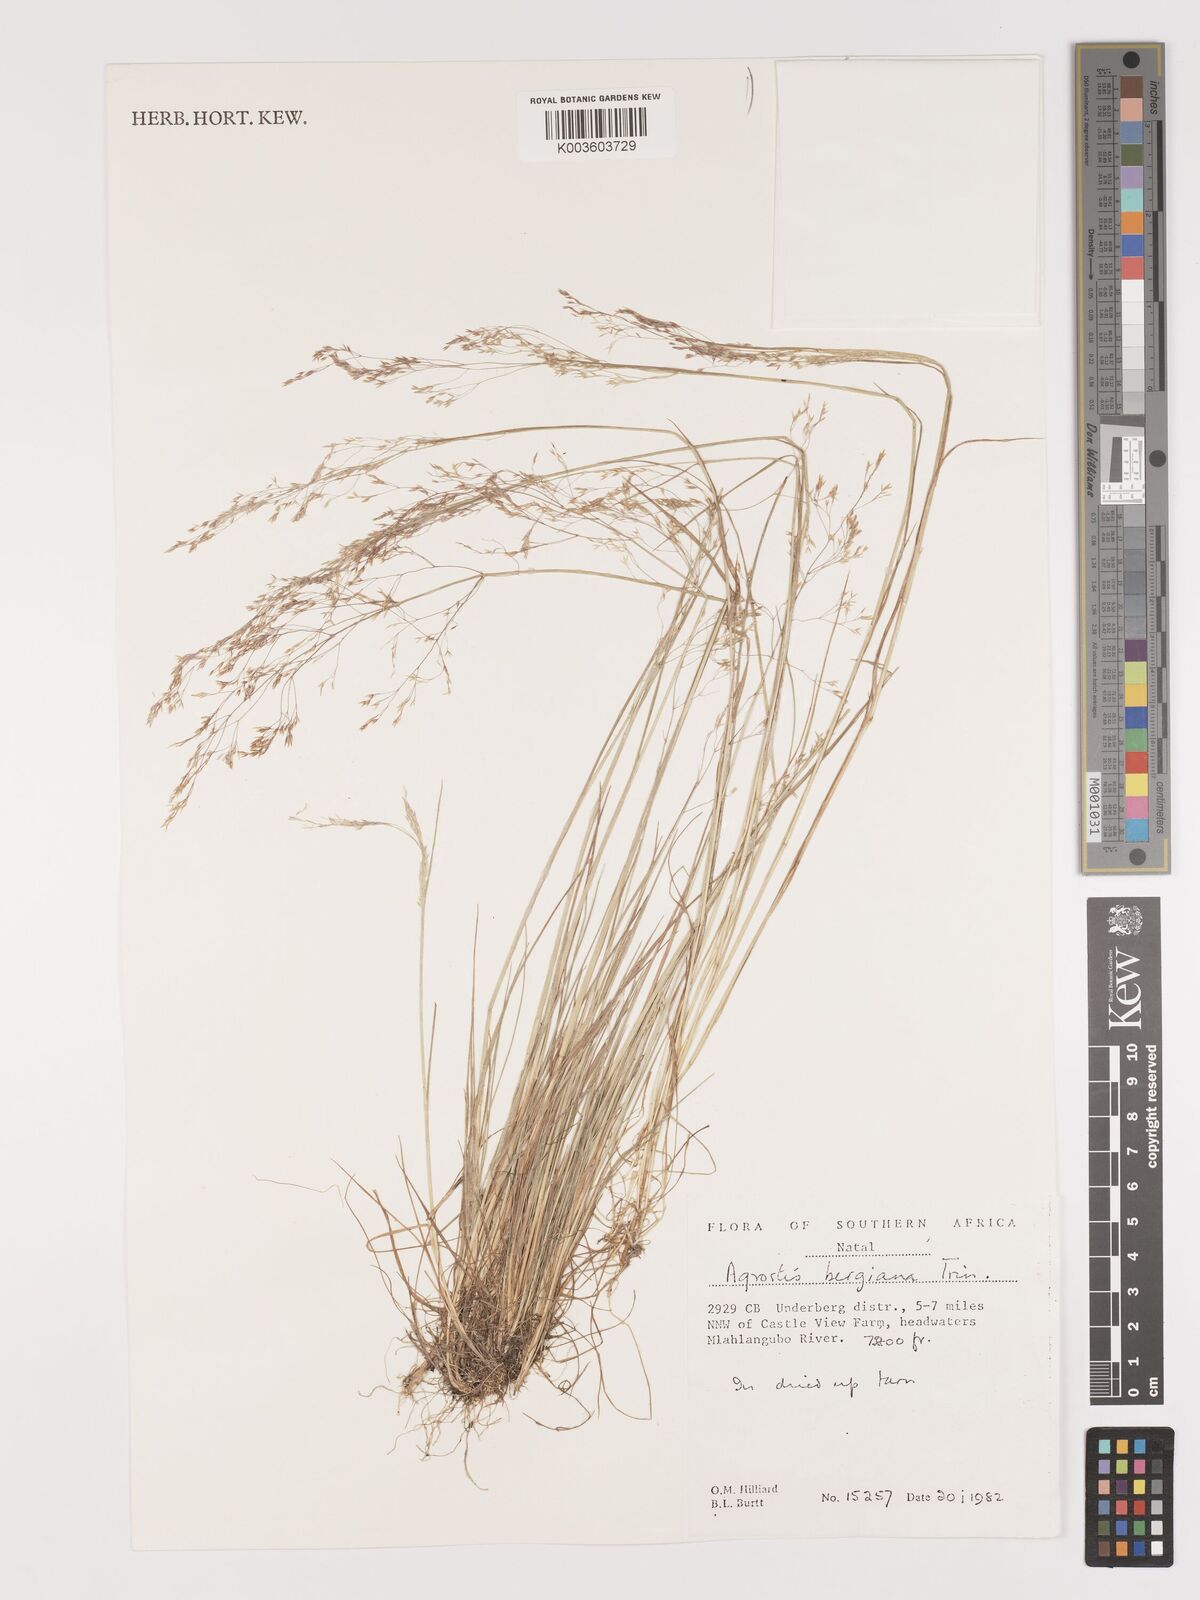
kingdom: Plantae
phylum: Tracheophyta
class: Liliopsida
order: Poales
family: Poaceae
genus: Agrostis
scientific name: Agrostis bergiana
